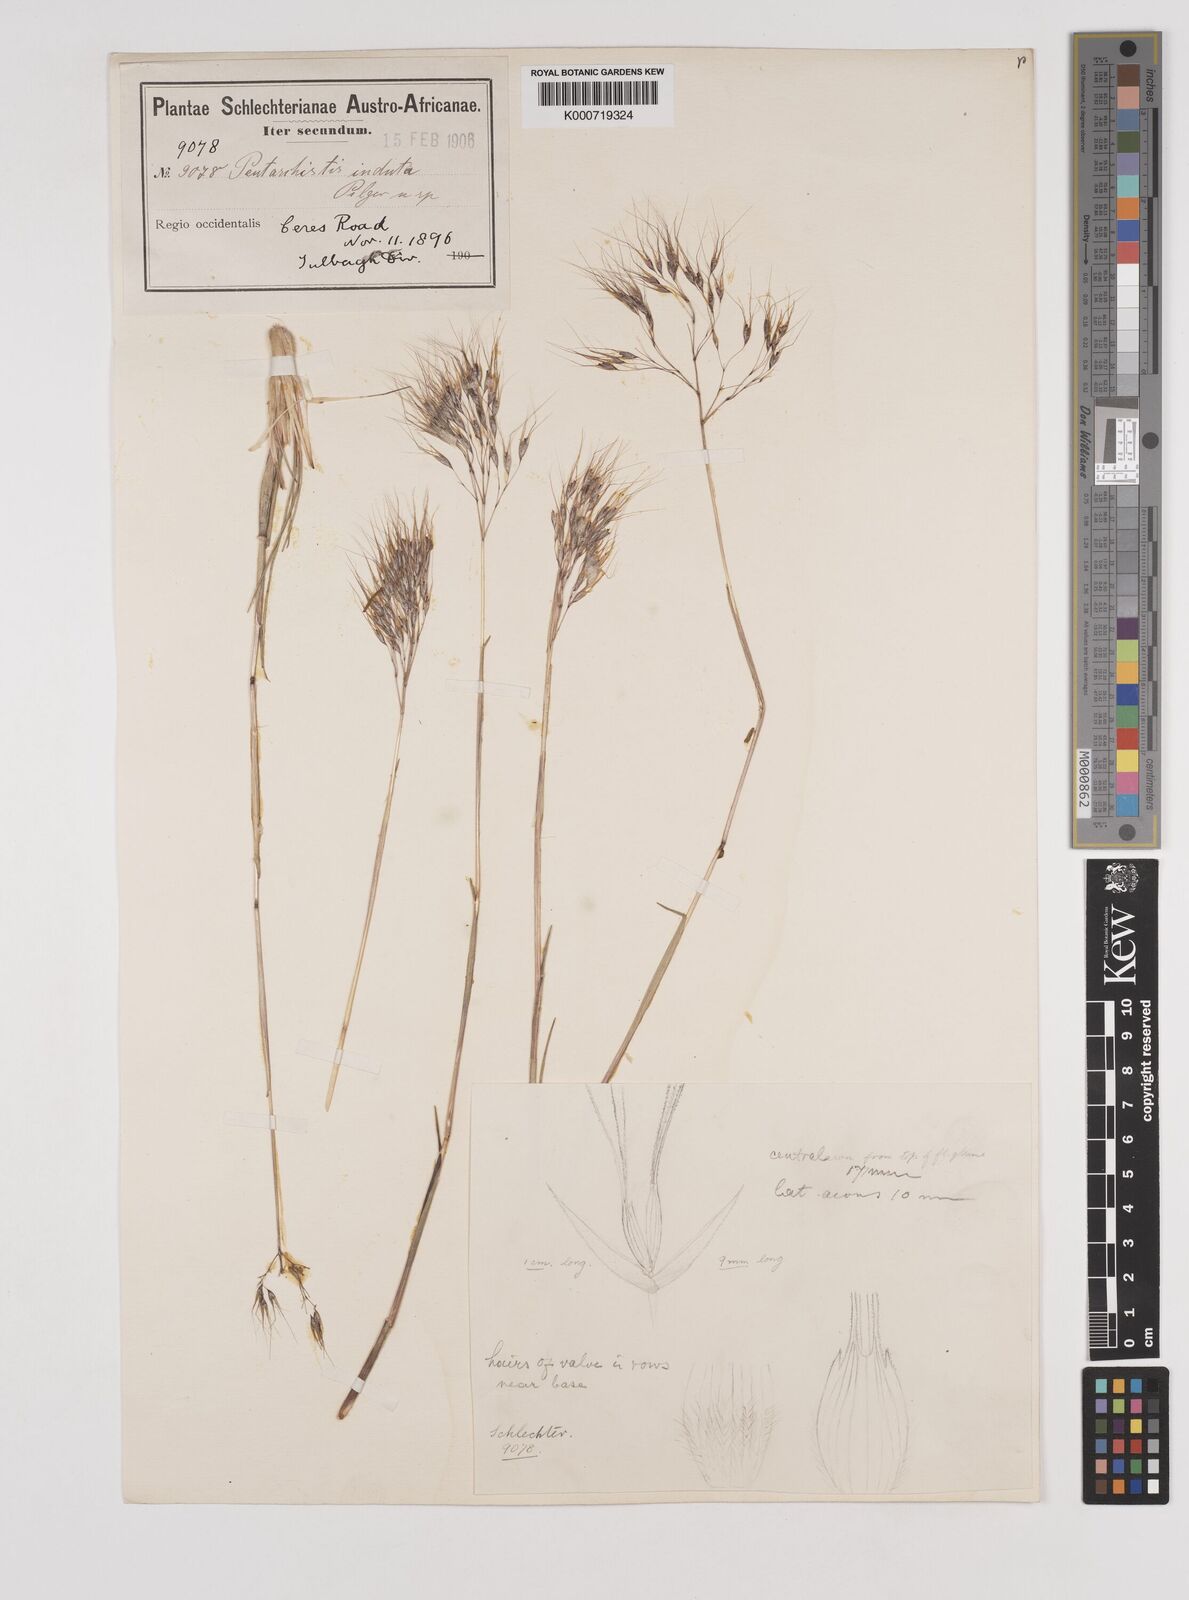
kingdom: Plantae
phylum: Tracheophyta
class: Liliopsida
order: Poales
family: Poaceae
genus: Pentameris
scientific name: Pentameris viscidula
